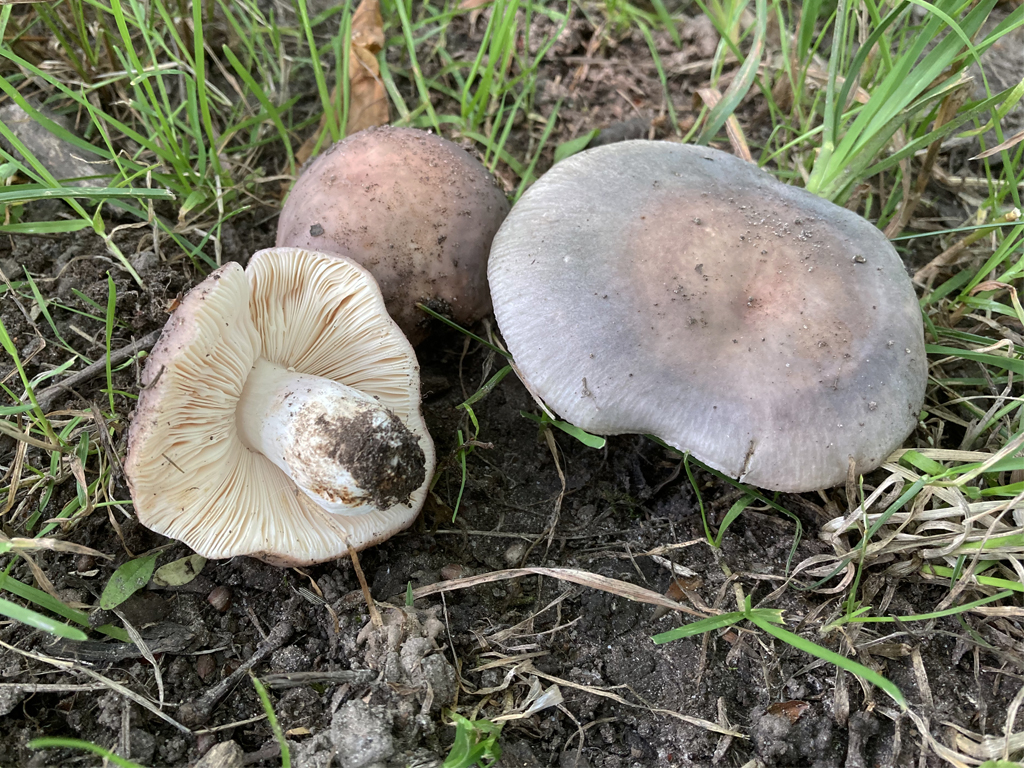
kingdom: Fungi
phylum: Basidiomycota
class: Agaricomycetes
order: Russulales
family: Russulaceae
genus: Russula
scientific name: Russula
